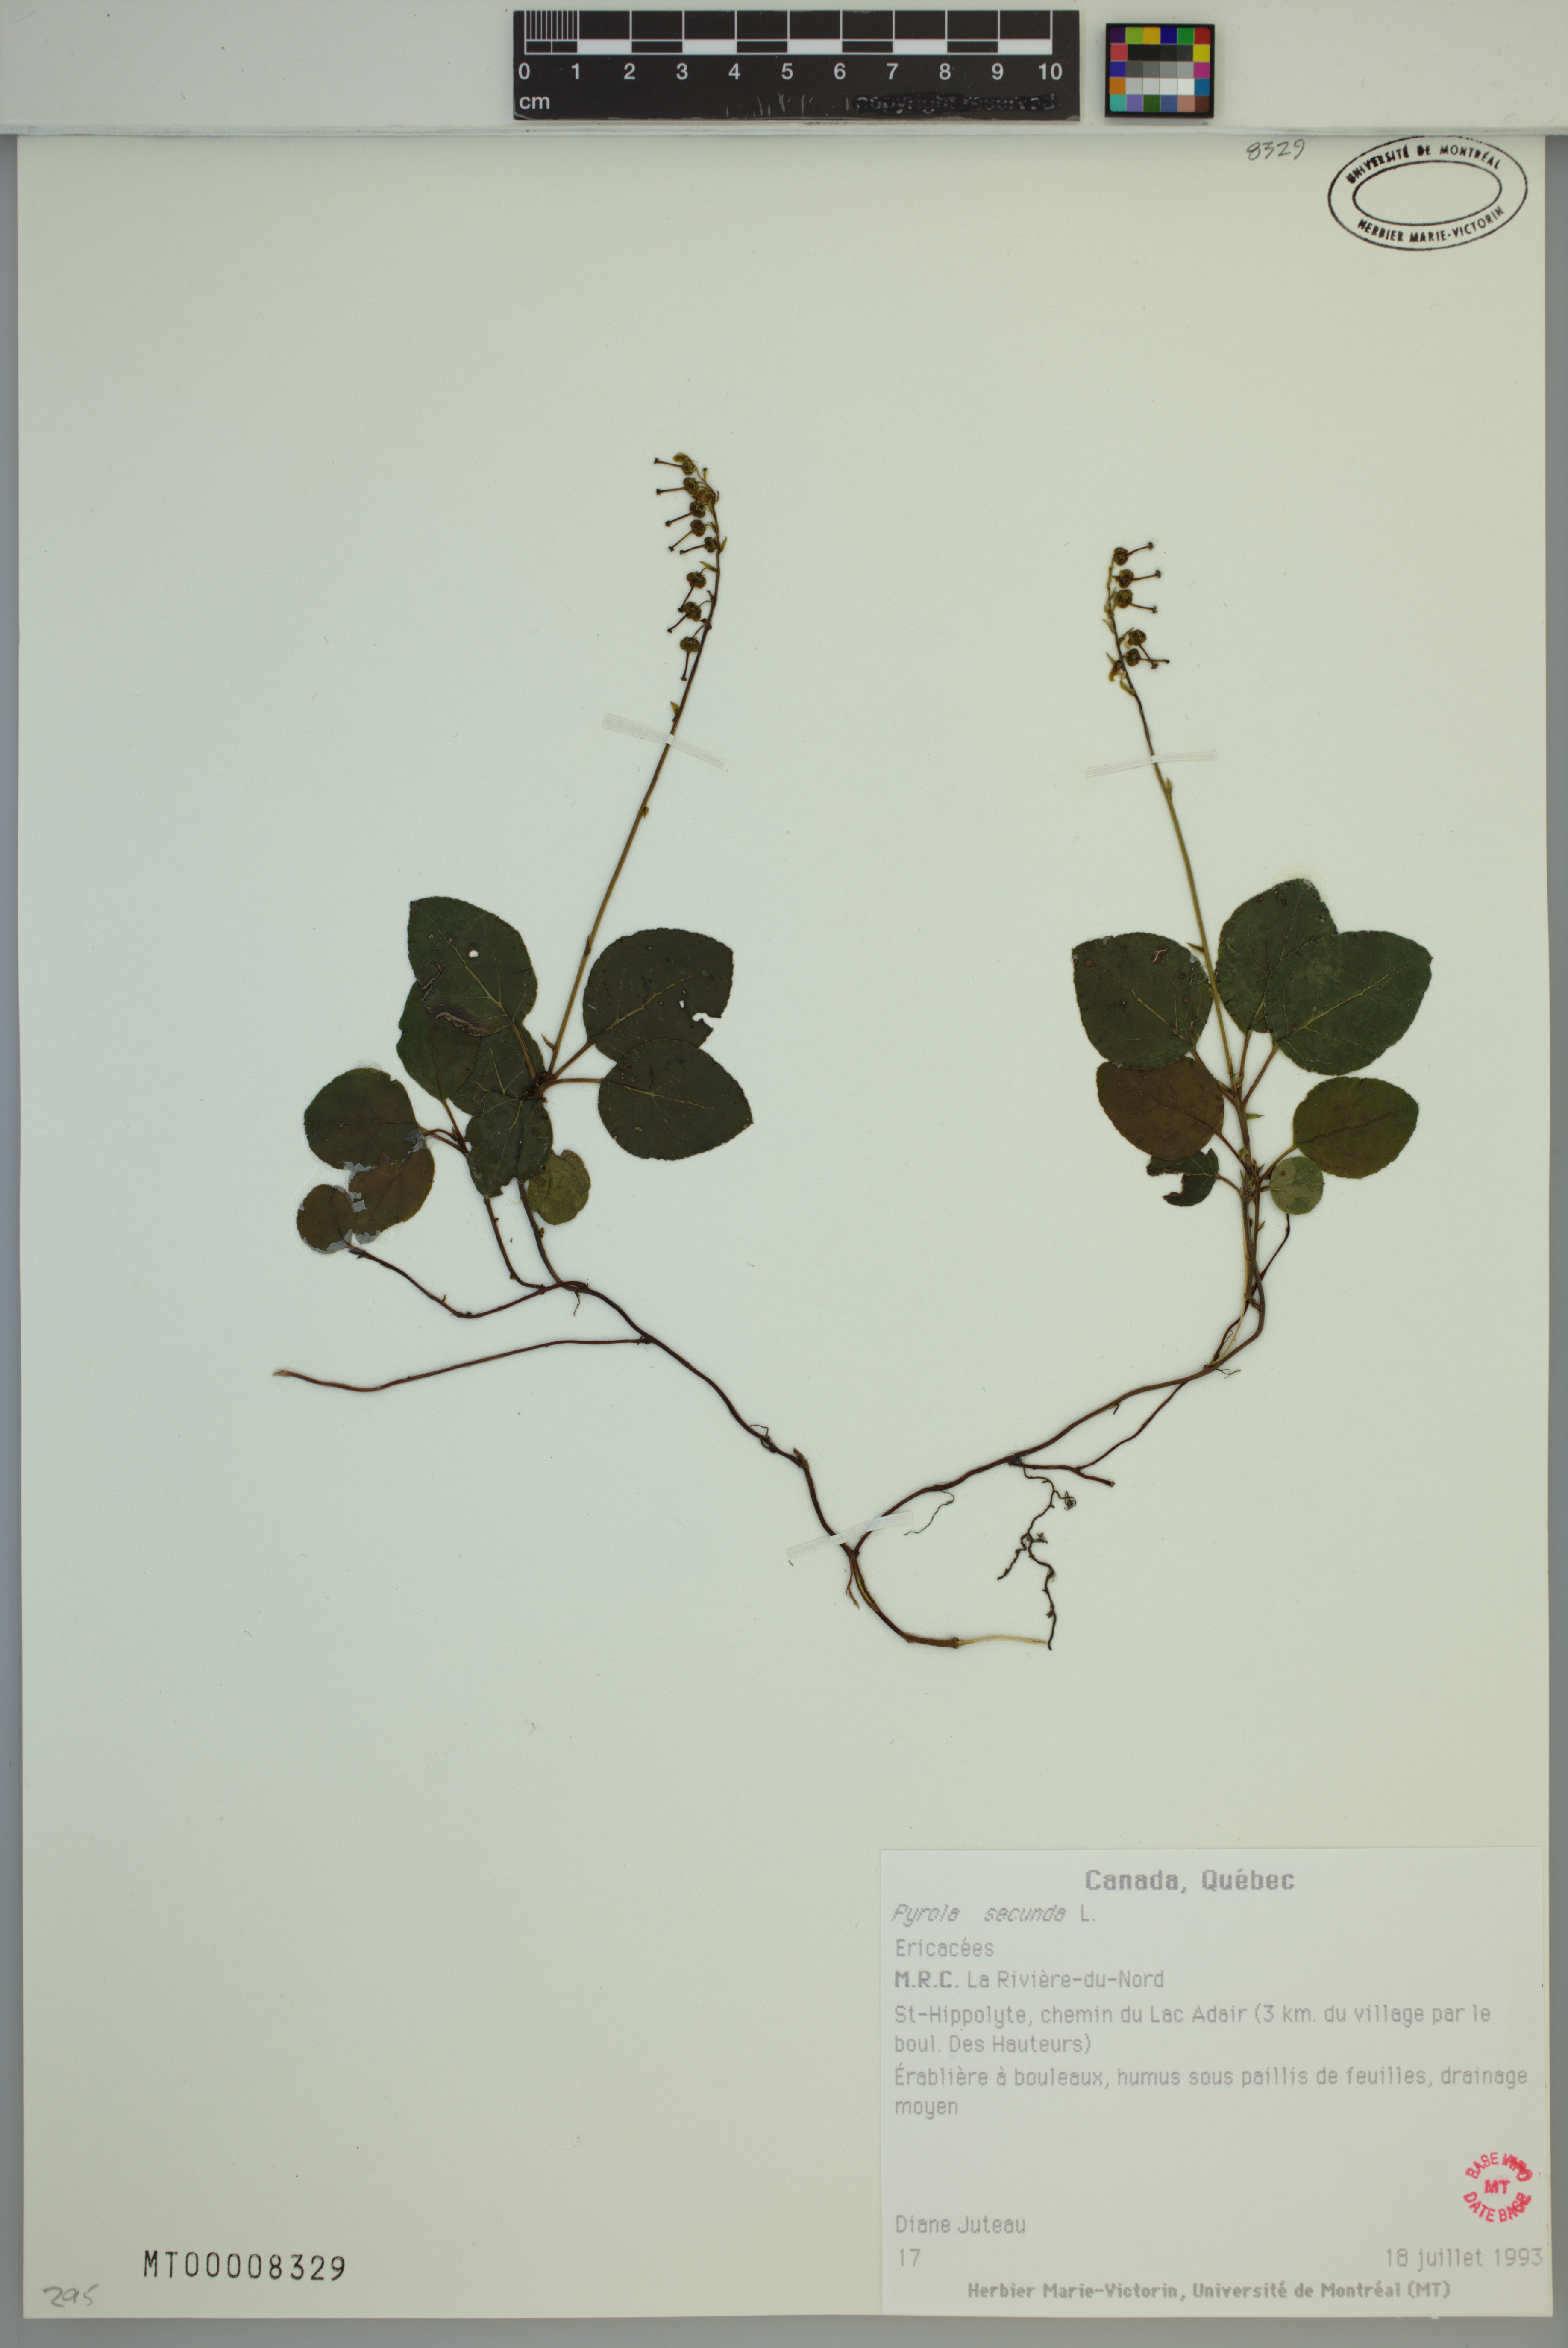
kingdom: Plantae
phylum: Tracheophyta
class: Magnoliopsida
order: Ericales
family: Ericaceae
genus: Orthilia
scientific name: Orthilia secunda
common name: One-sided orthilia
